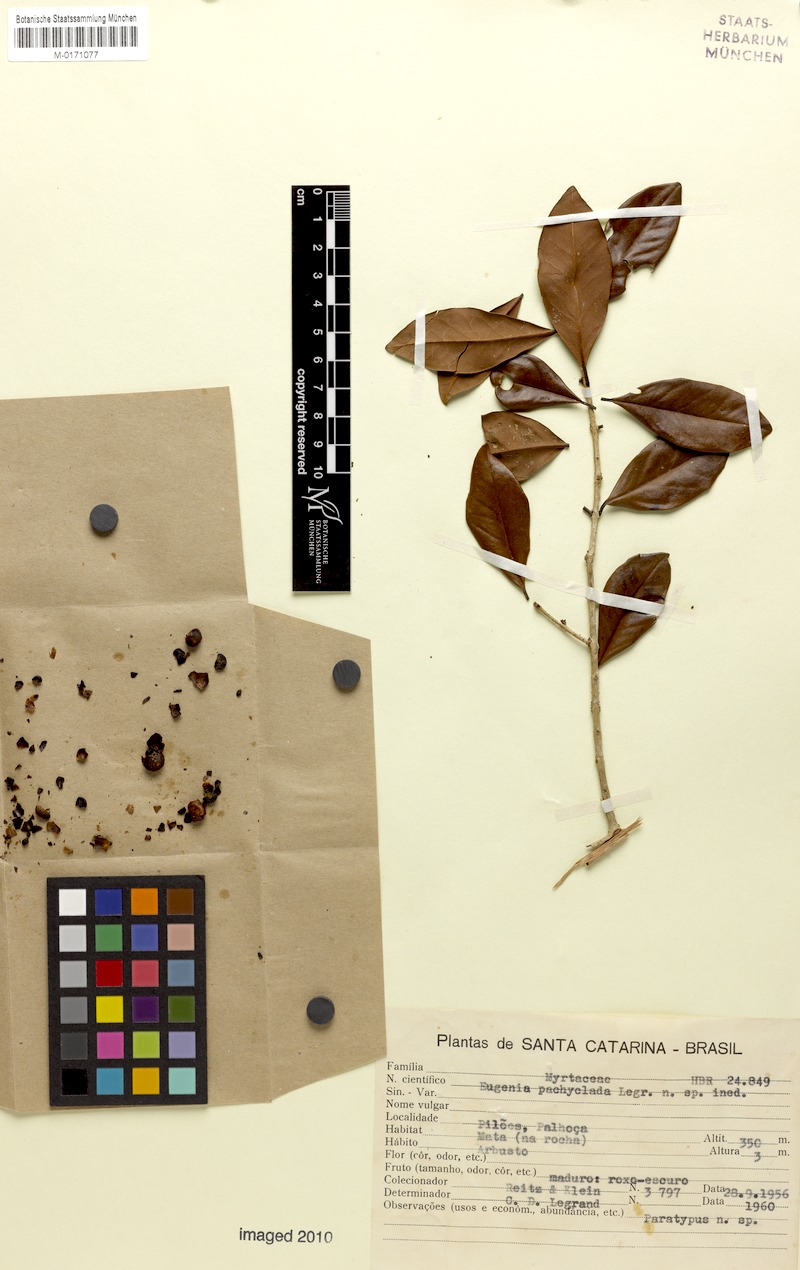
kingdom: Plantae
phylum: Tracheophyta
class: Magnoliopsida
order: Myrtales
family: Myrtaceae
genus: Eugenia
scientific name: Eugenia pachyclada
